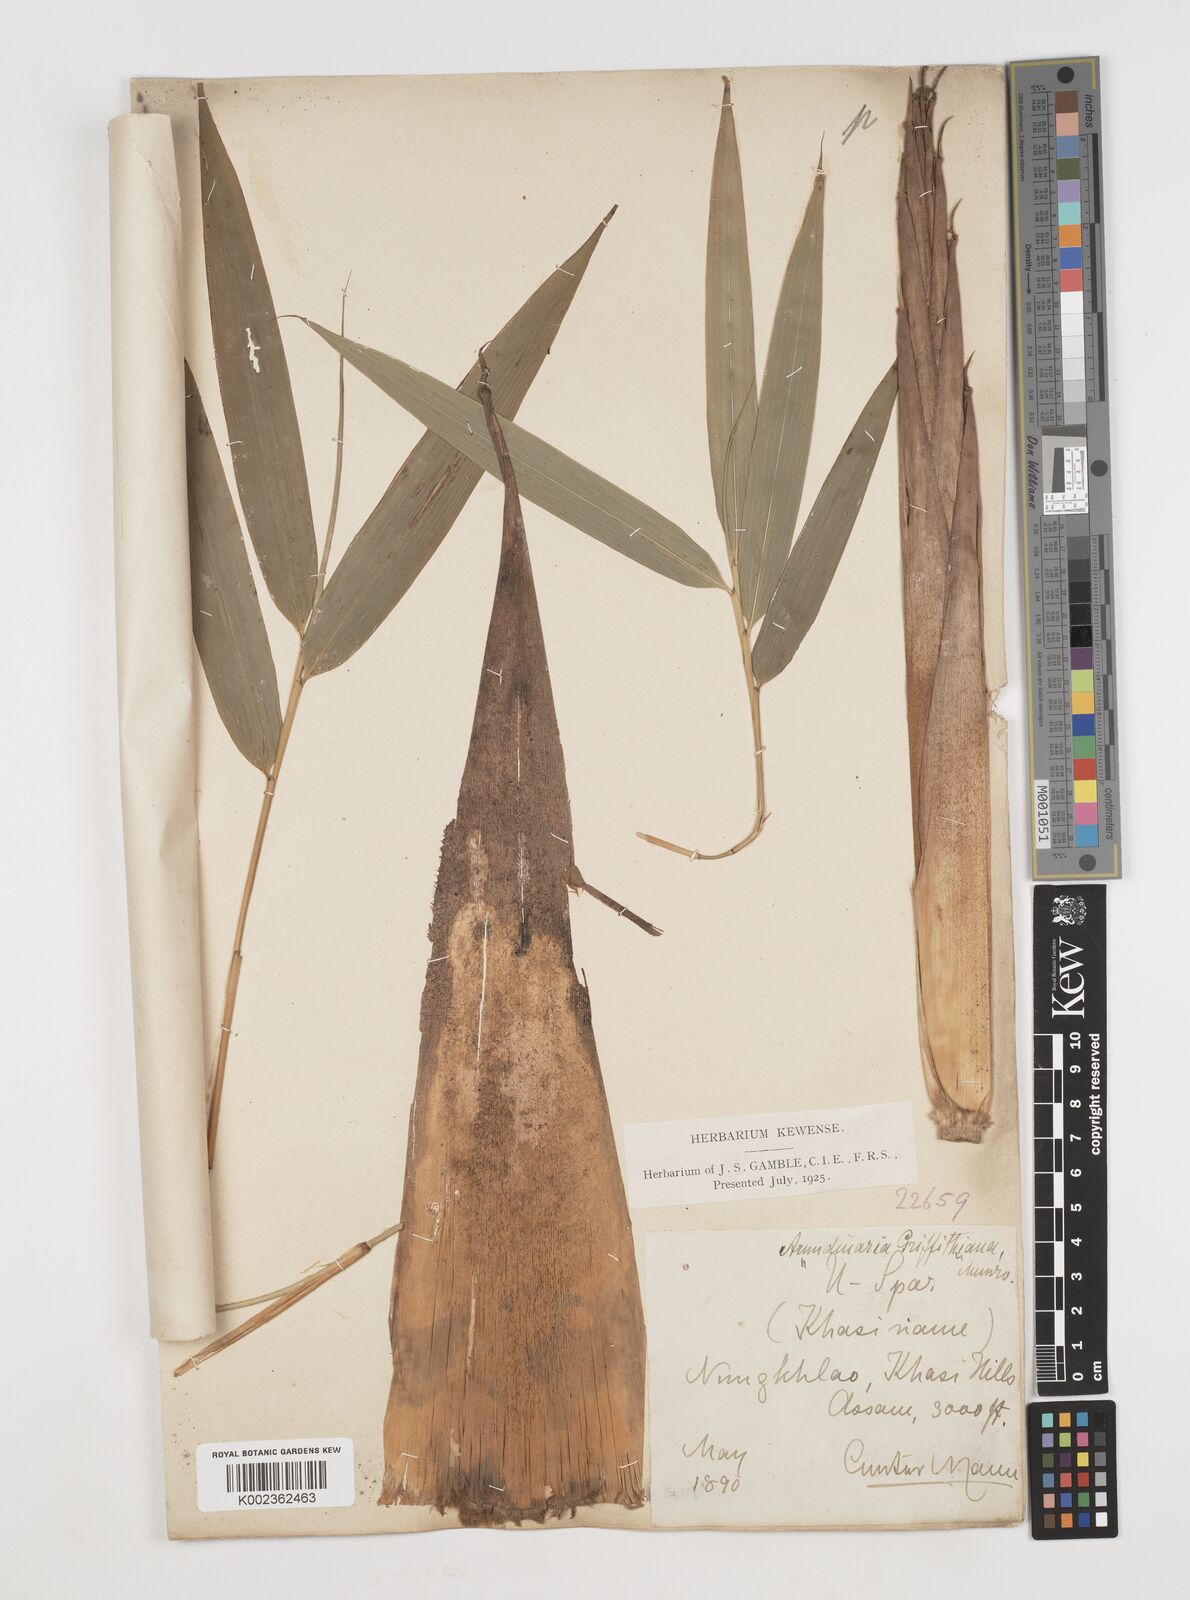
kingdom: Plantae
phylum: Tracheophyta
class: Liliopsida
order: Poales
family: Poaceae
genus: Chimonocalamus
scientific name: Chimonocalamus griffithianus
